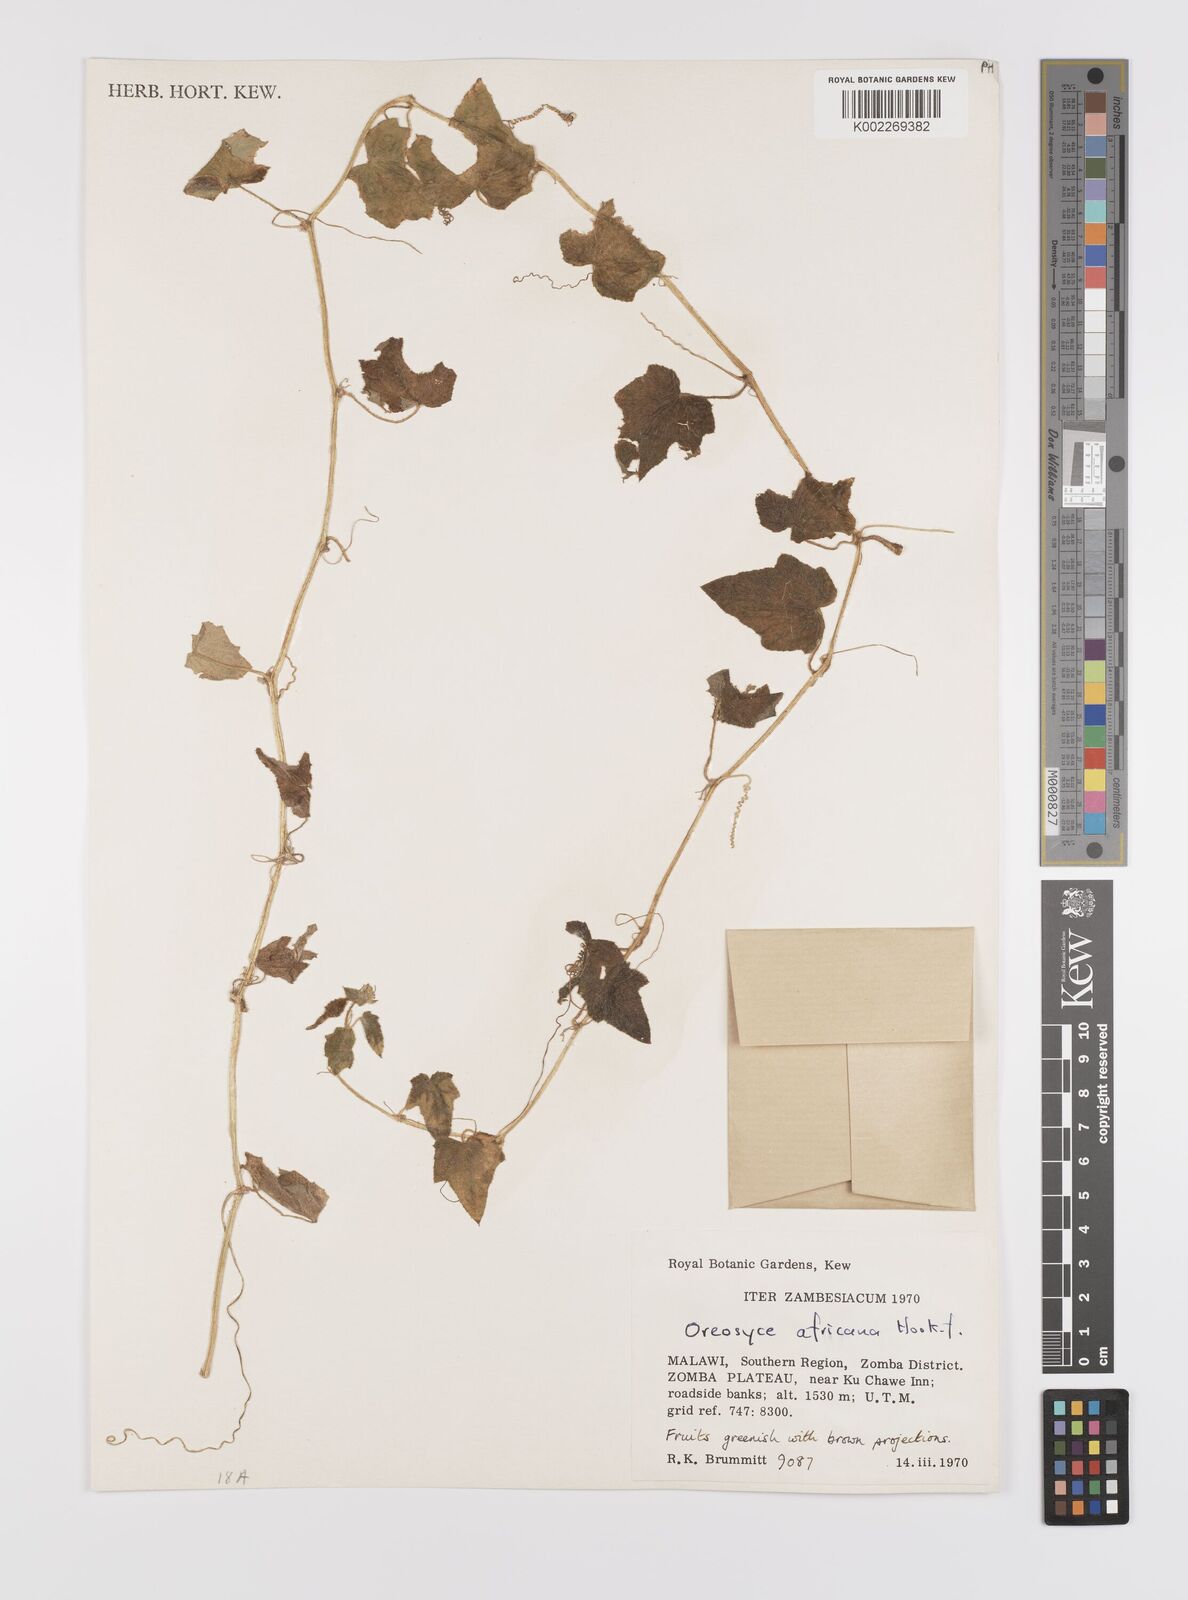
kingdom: Plantae
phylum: Tracheophyta
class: Magnoliopsida
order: Cucurbitales
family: Cucurbitaceae
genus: Cucumis
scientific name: Cucumis oreosyce
